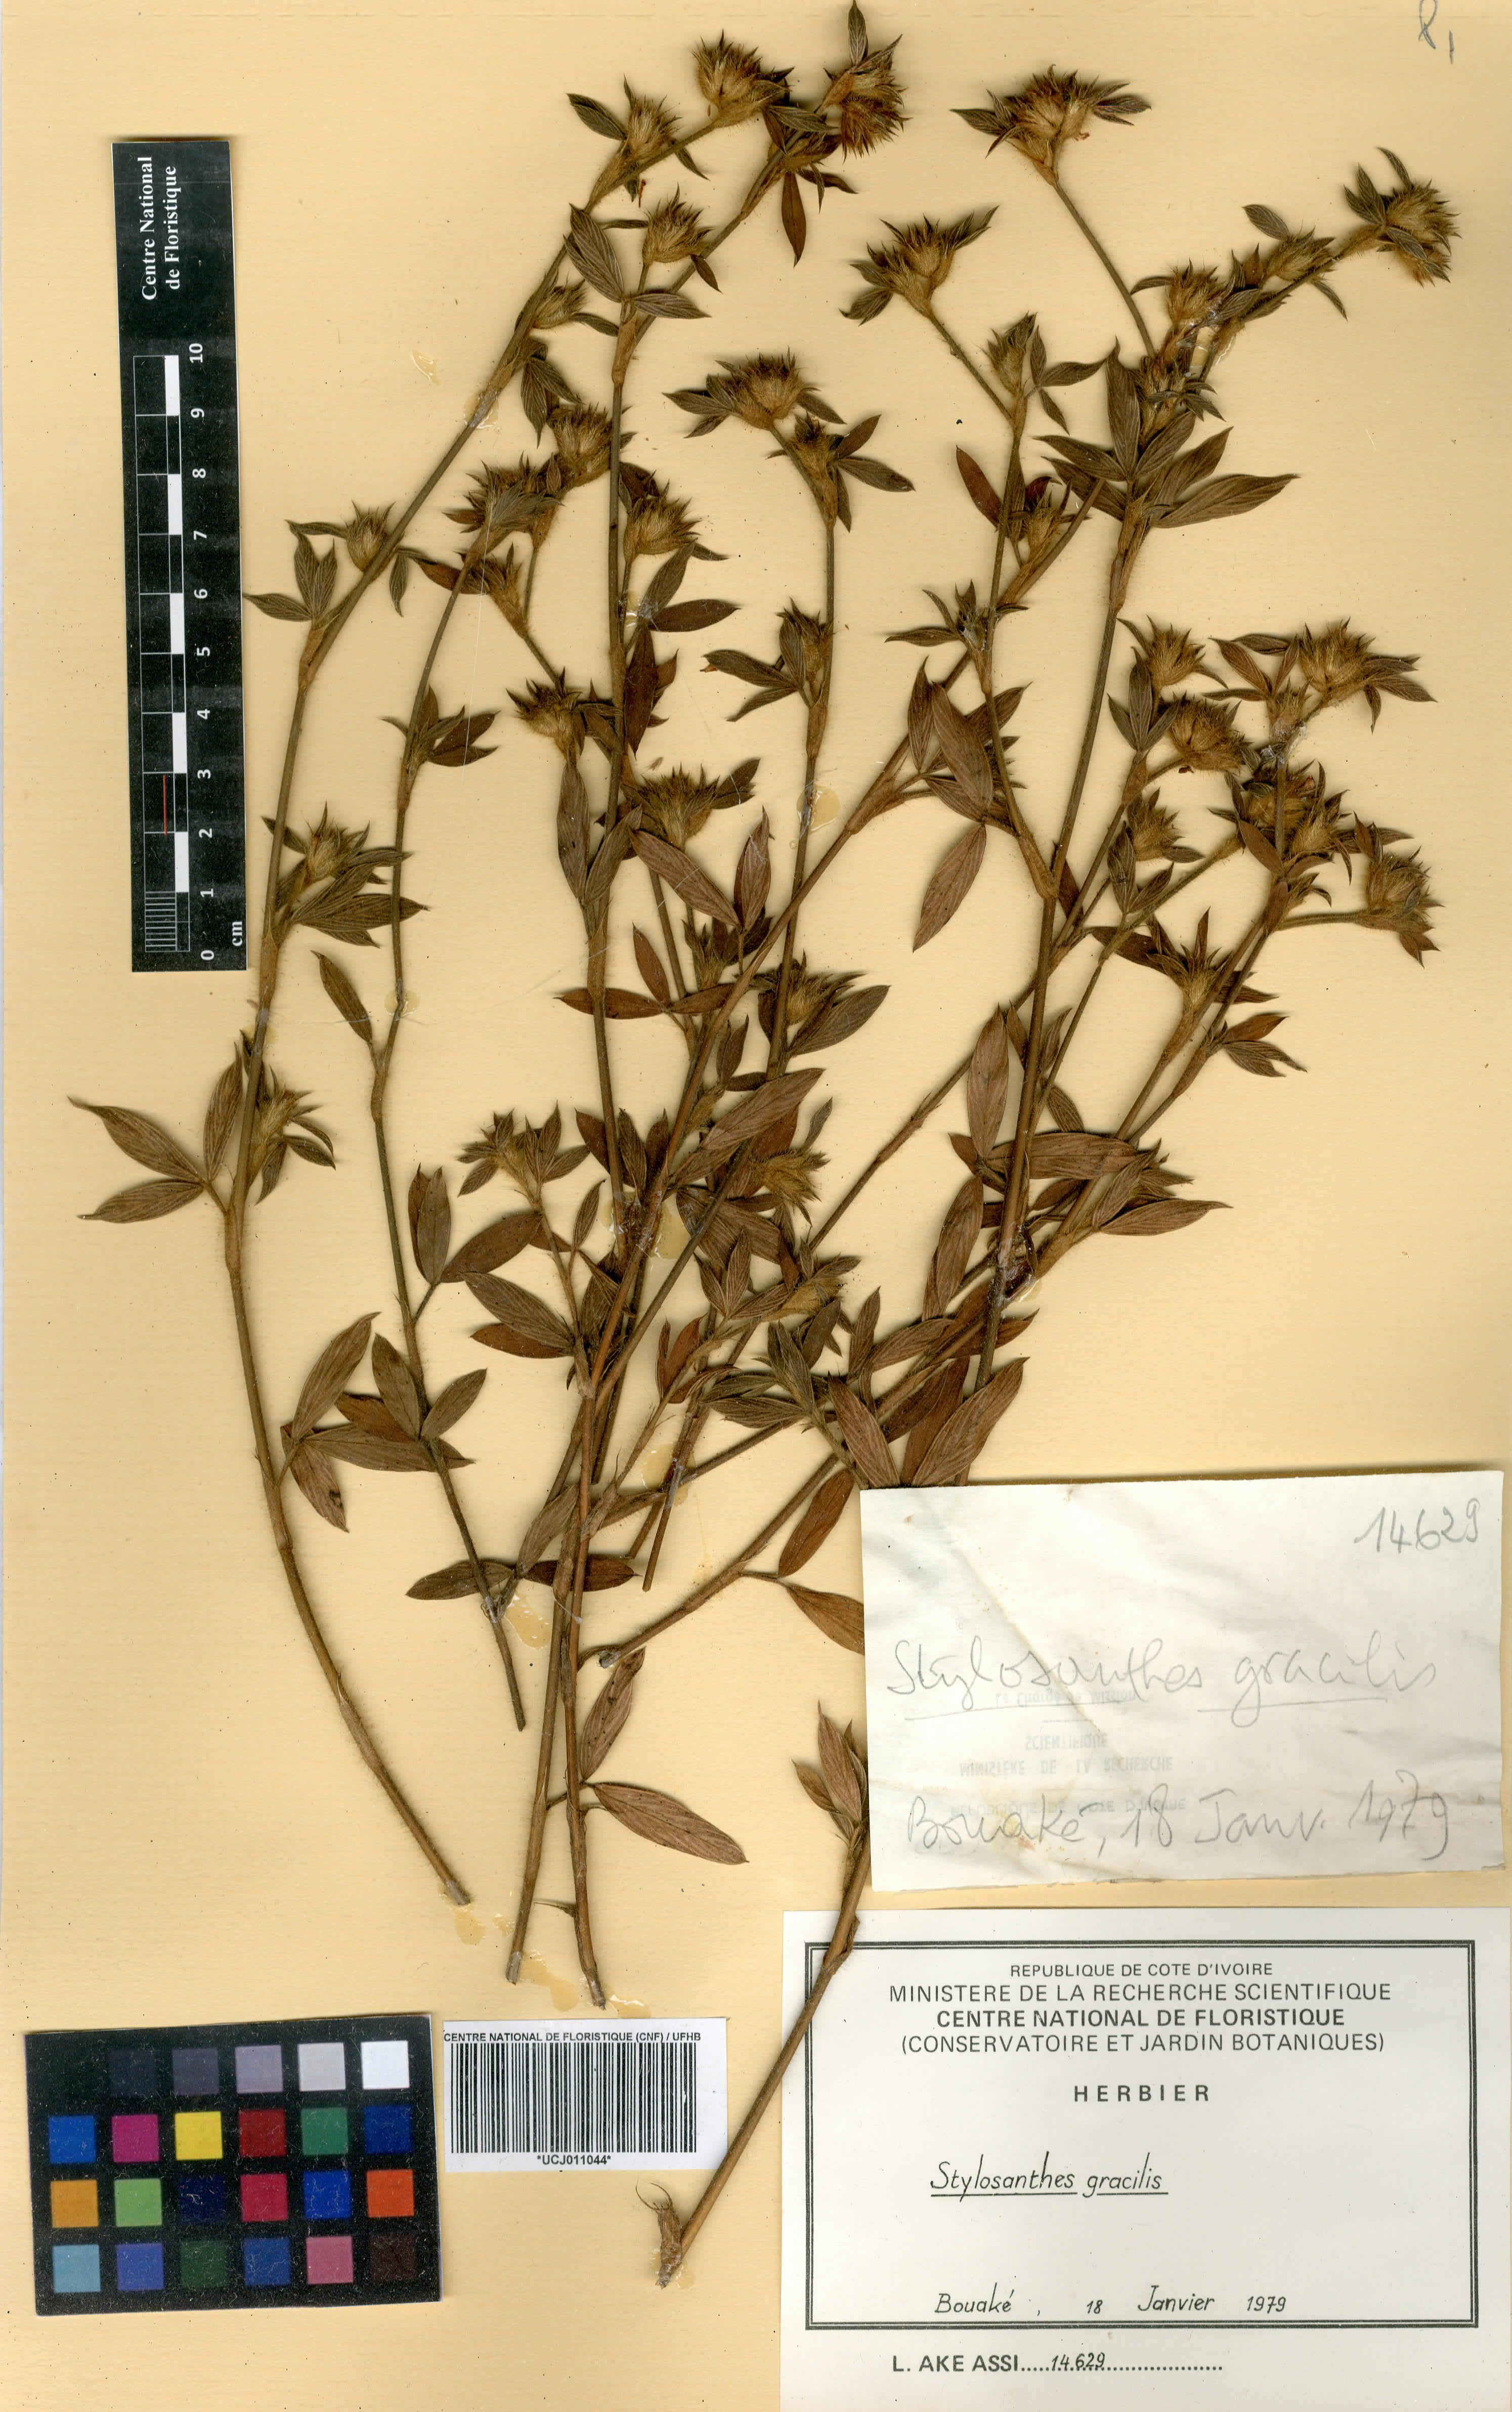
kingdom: Plantae
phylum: Tracheophyta
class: Magnoliopsida
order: Fabales
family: Fabaceae
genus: Stylosanthes
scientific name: Stylosanthes guianensis
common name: Pencil flower
